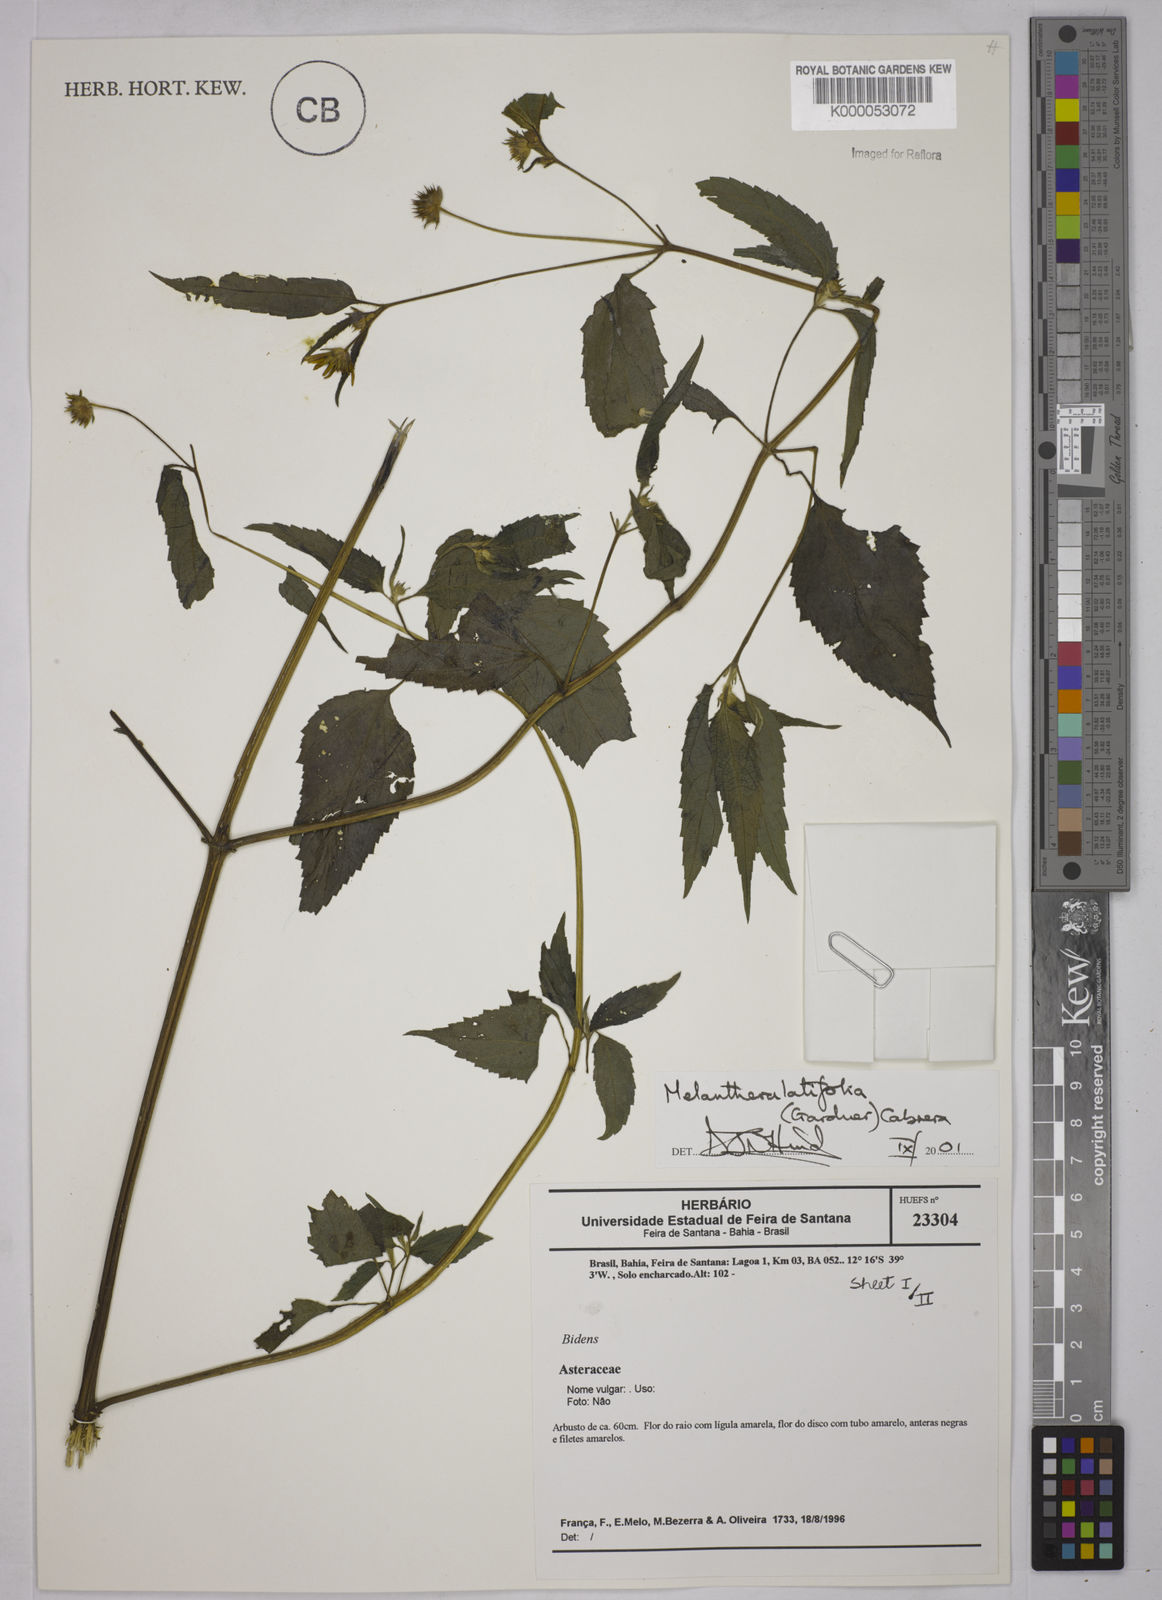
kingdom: Plantae
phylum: Tracheophyta
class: Magnoliopsida
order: Asterales
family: Asteraceae
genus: Echinocephalum
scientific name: Echinocephalum latifolium
